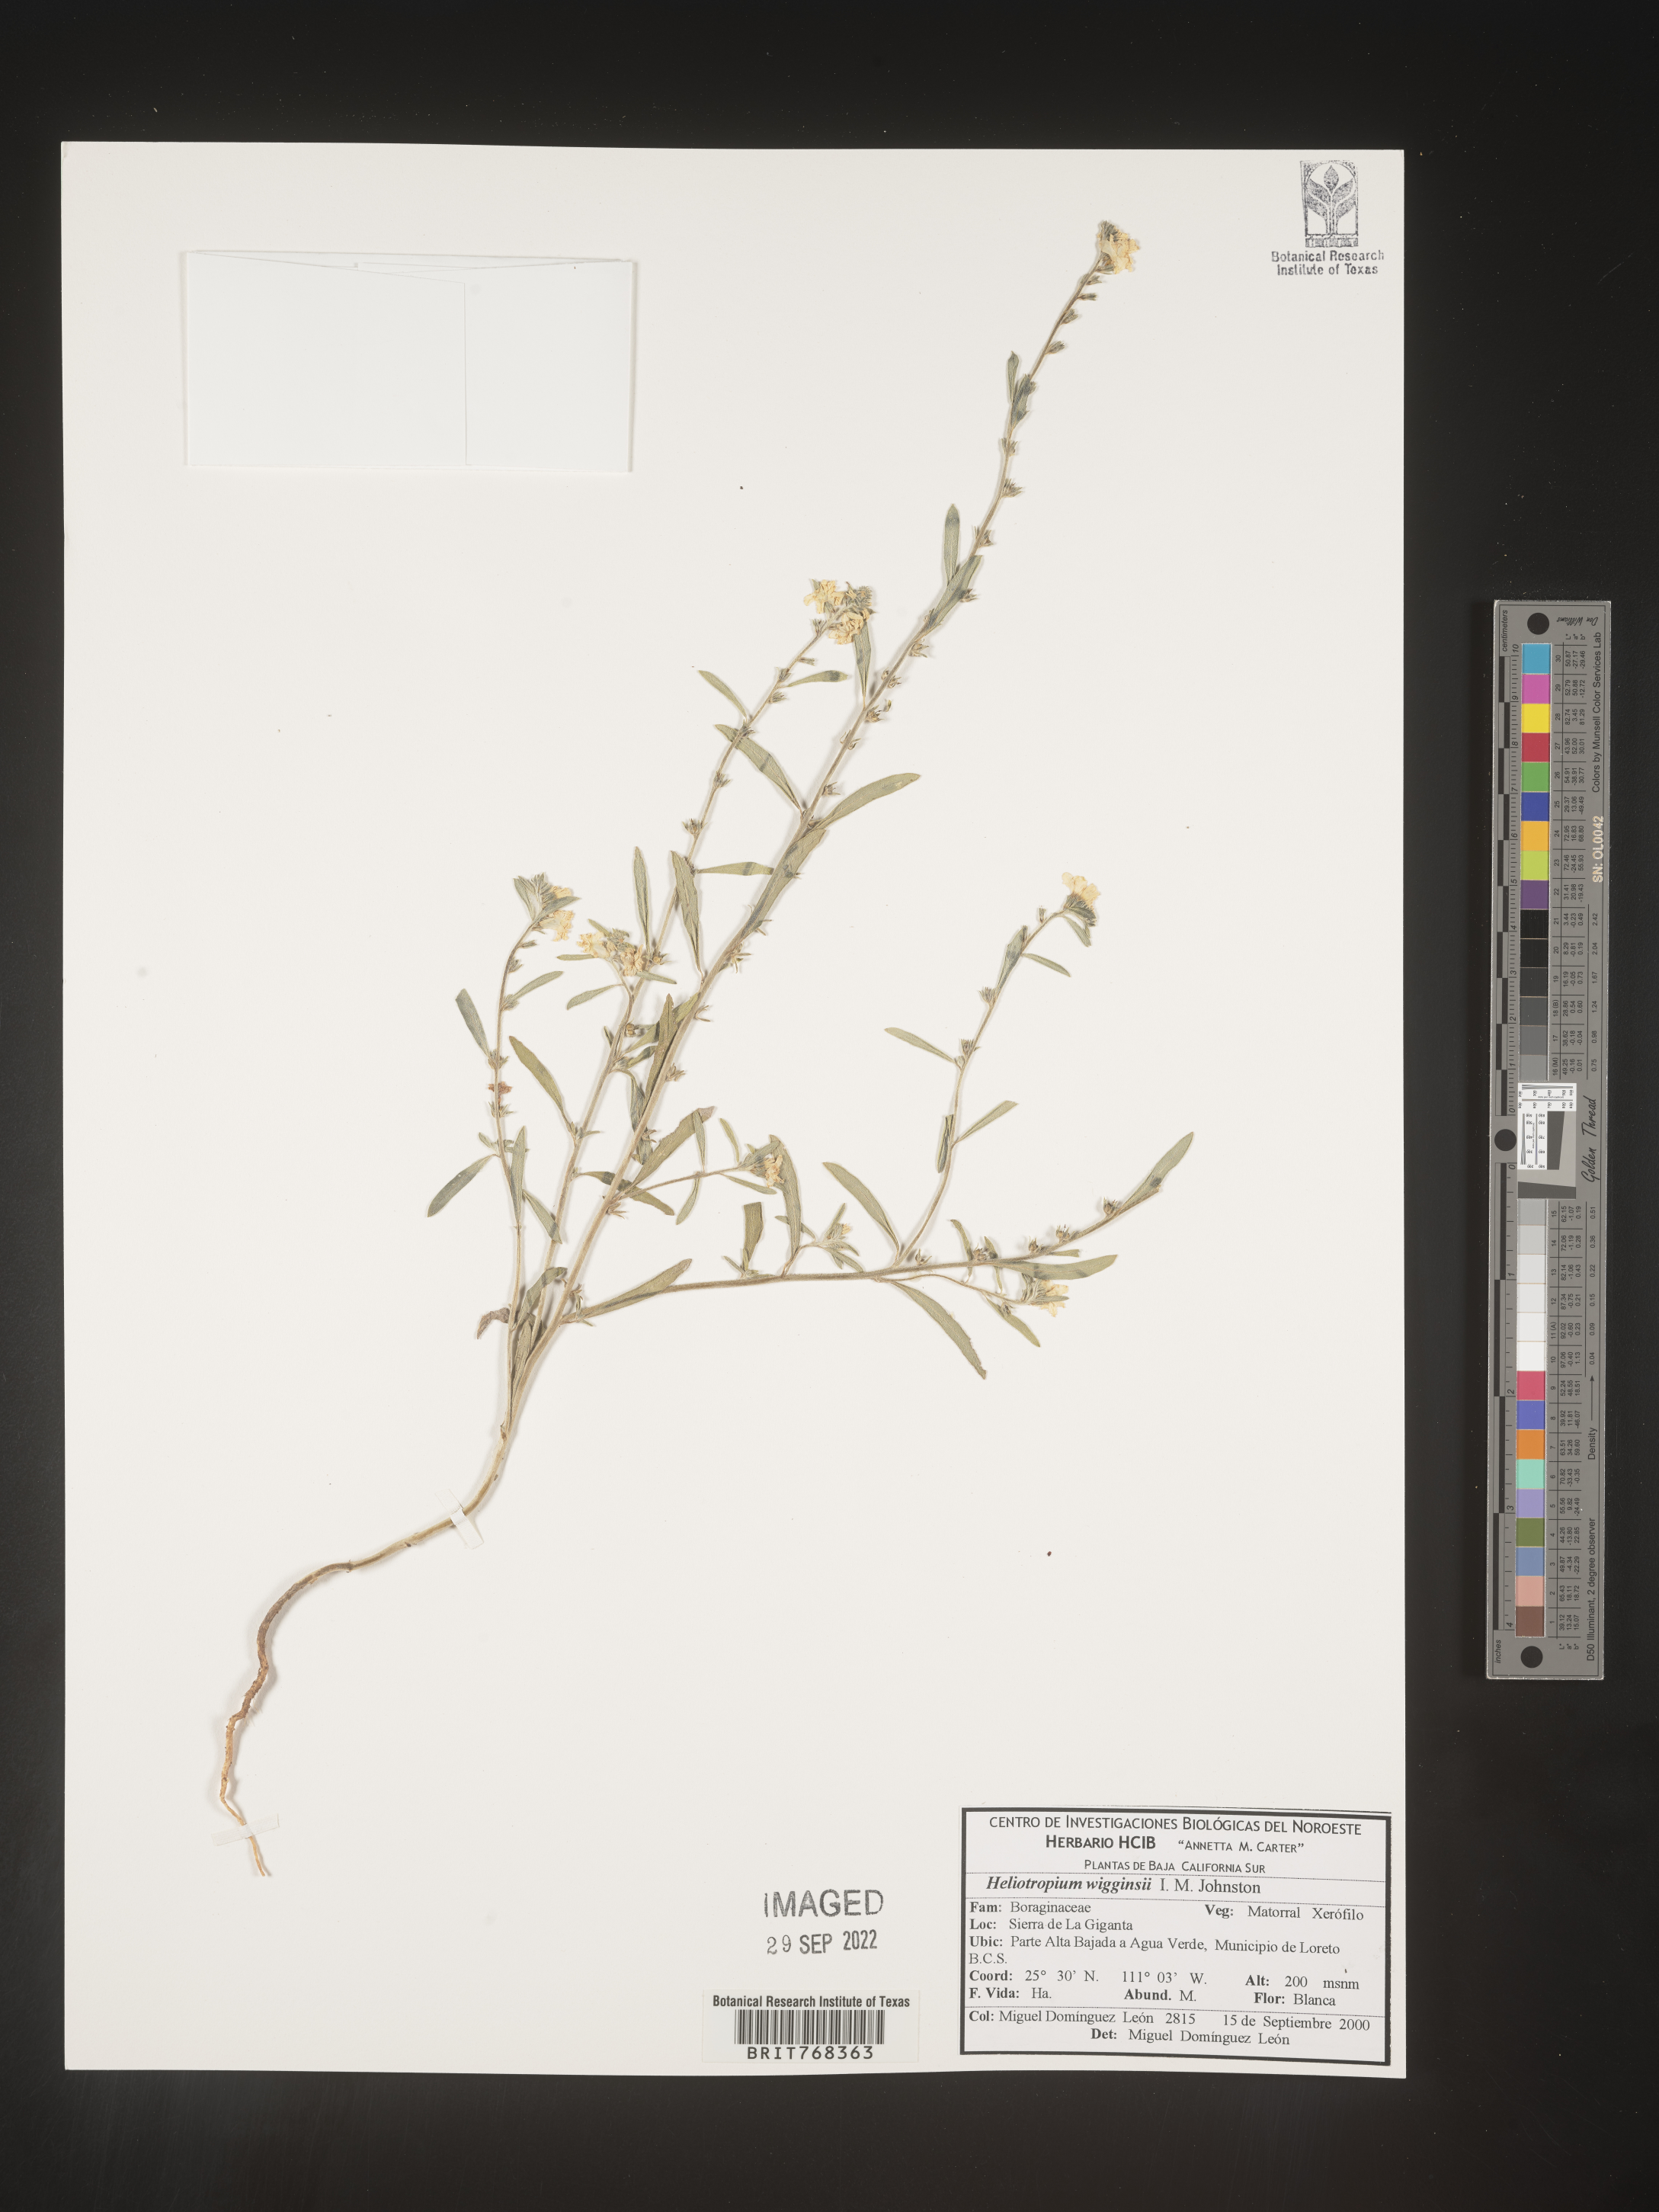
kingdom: Plantae
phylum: Tracheophyta
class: Magnoliopsida
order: Boraginales
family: Heliotropiaceae
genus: Heliotropium
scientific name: Heliotropium
